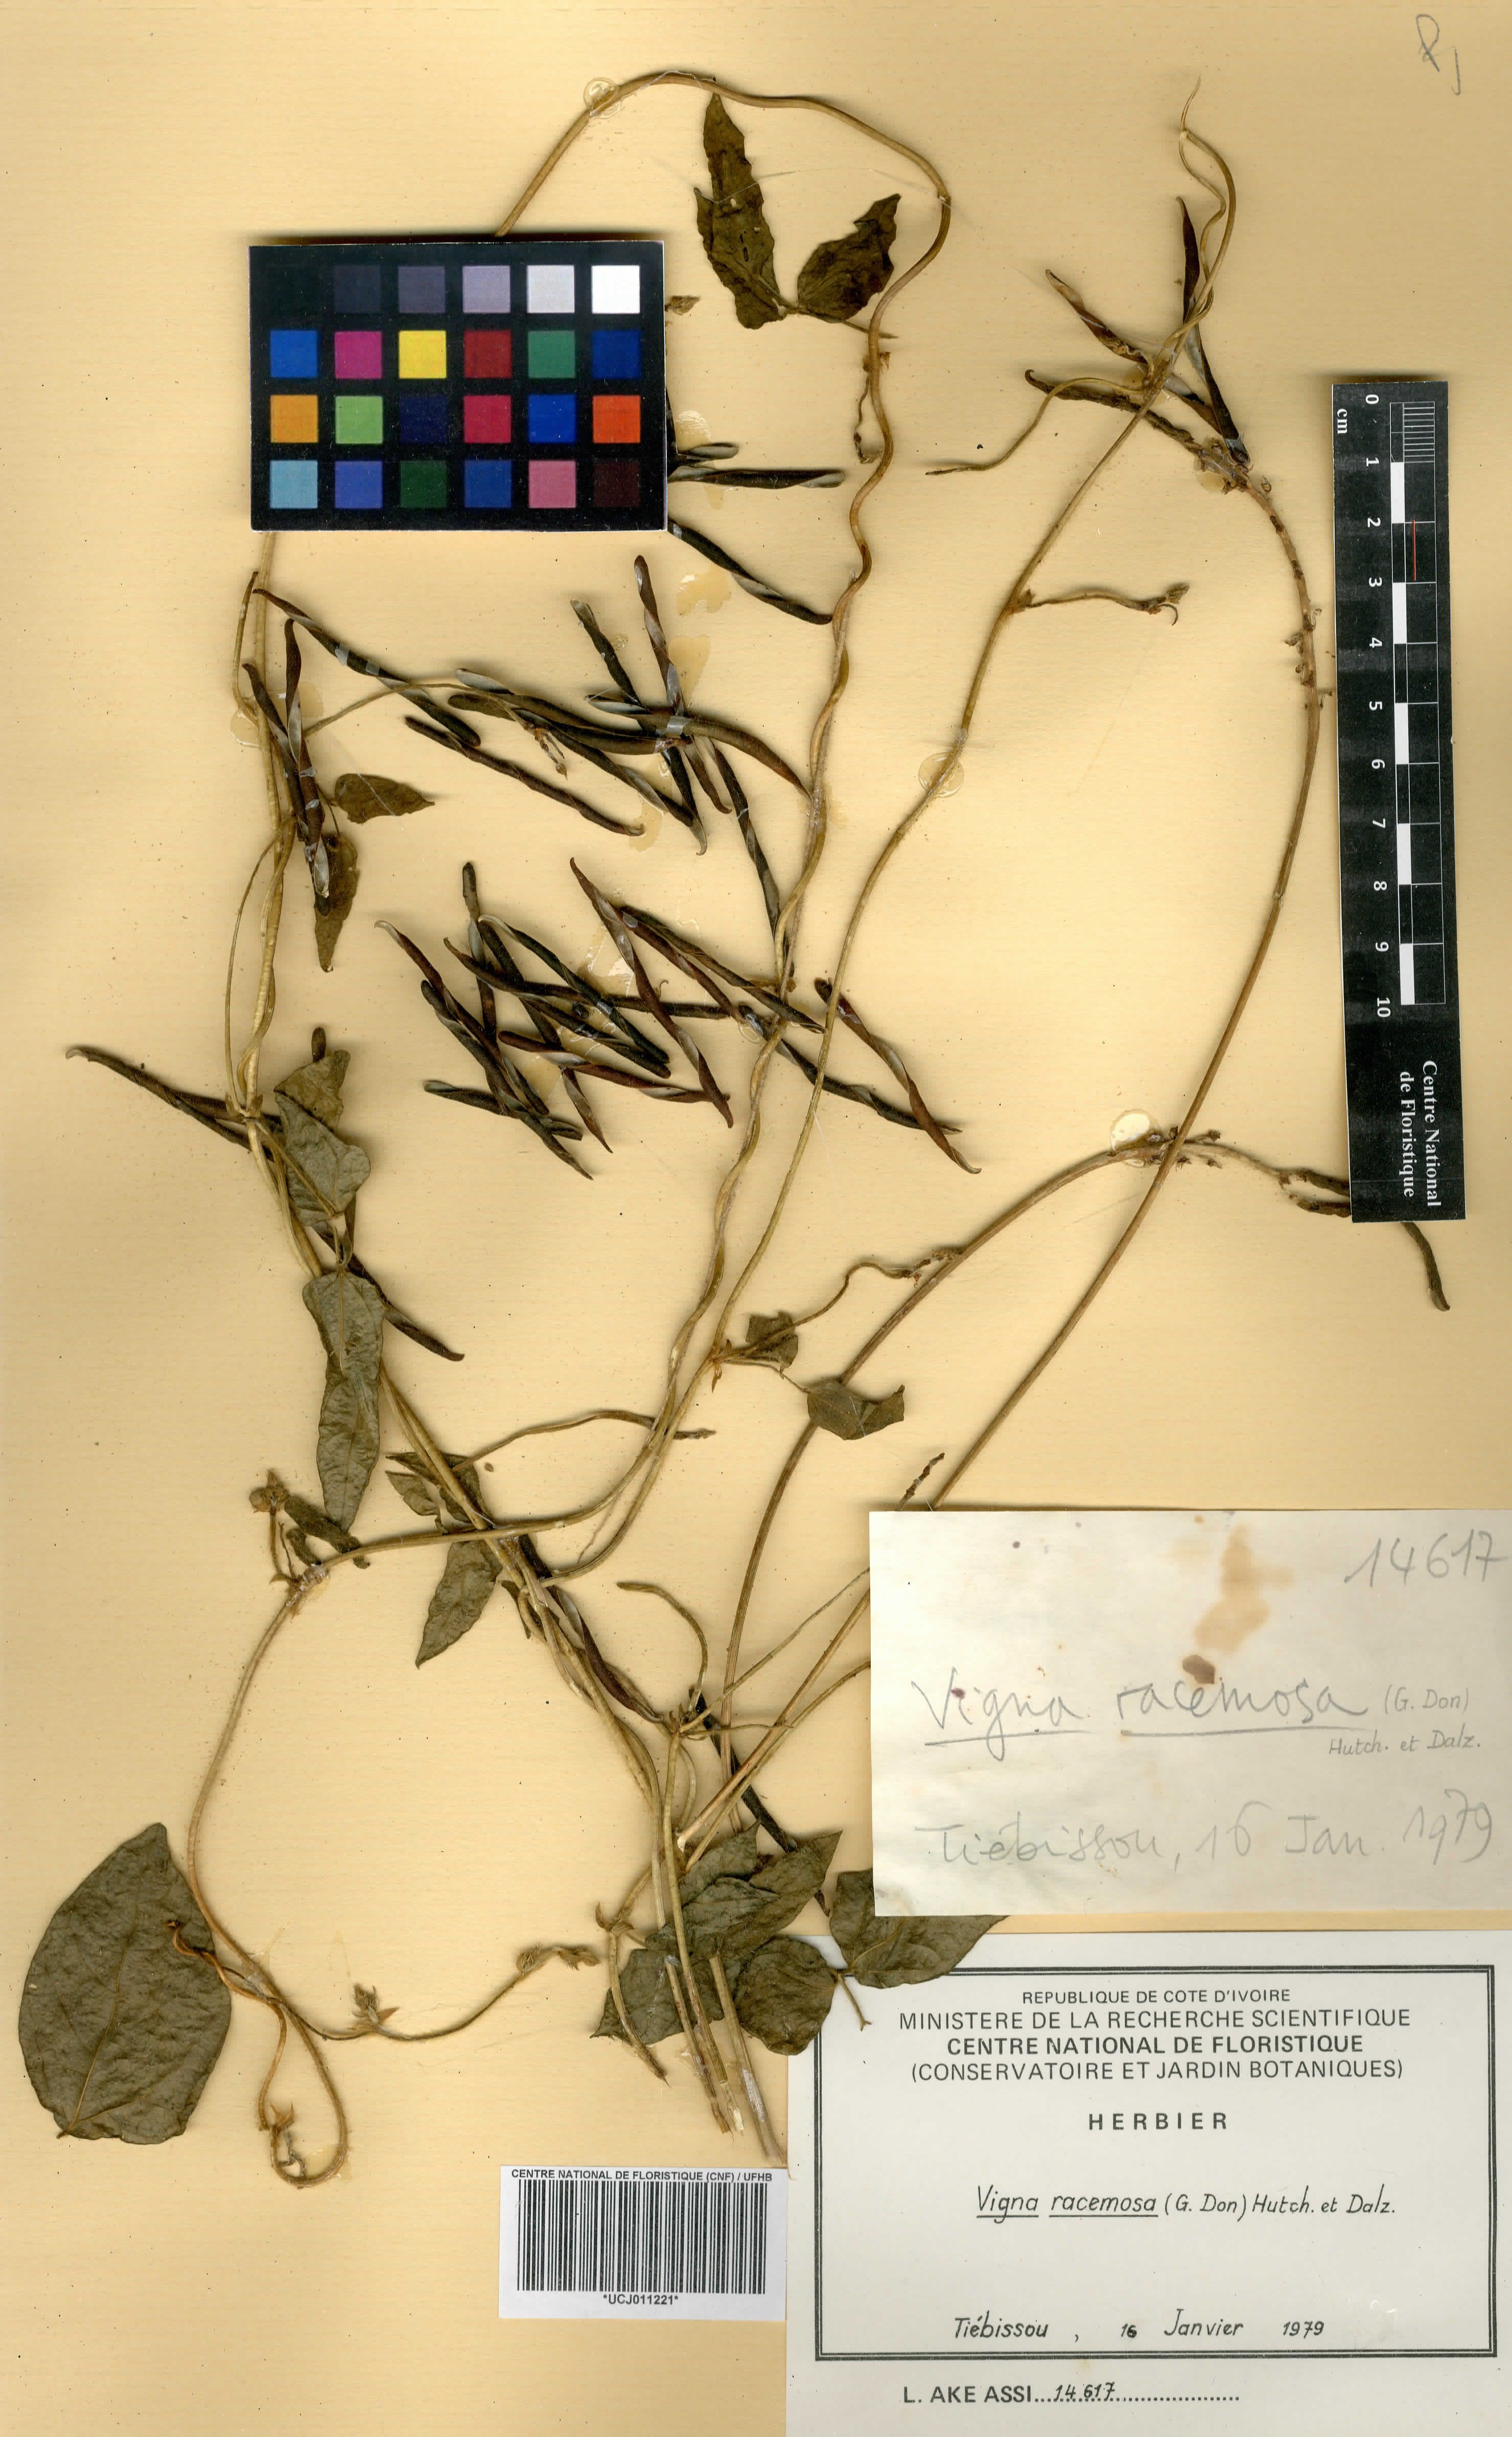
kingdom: Plantae
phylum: Tracheophyta
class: Magnoliopsida
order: Fabales
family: Fabaceae
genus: Vigna
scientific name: Vigna racemosa
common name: Beans not eaten
